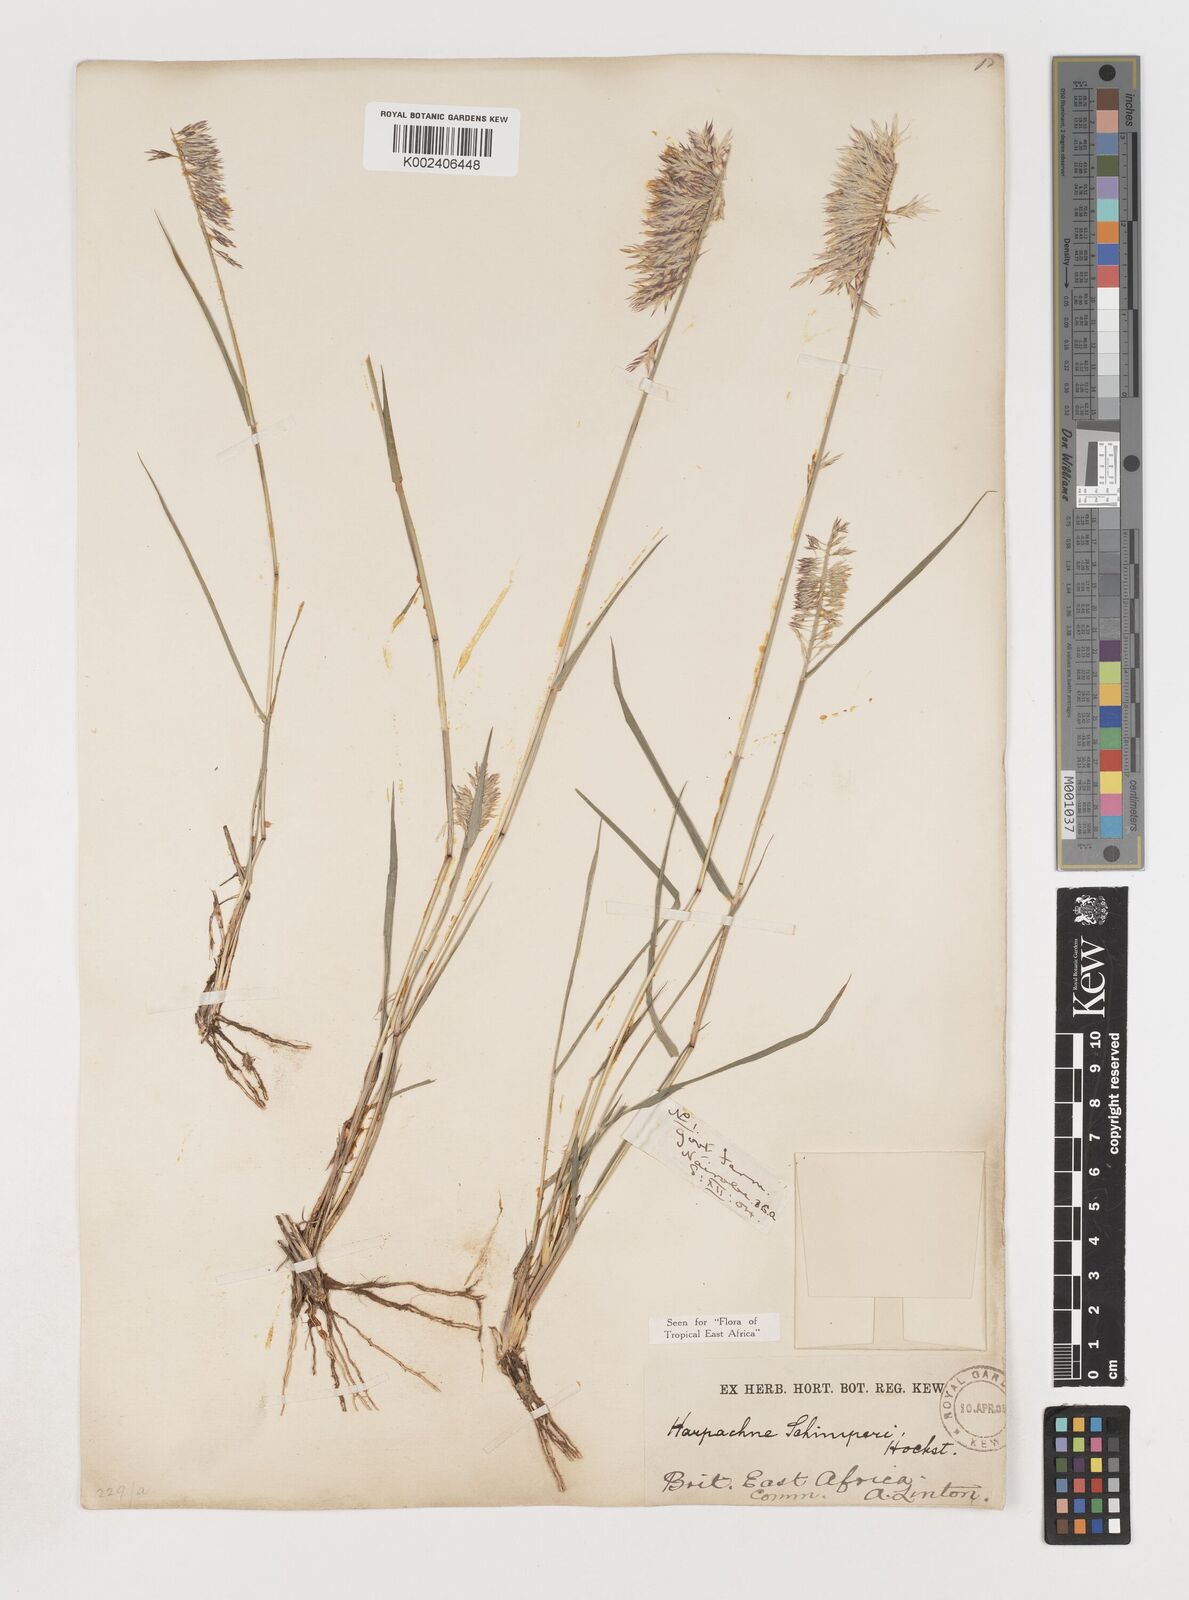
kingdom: Plantae
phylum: Tracheophyta
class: Liliopsida
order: Poales
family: Poaceae
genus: Harpachne
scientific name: Harpachne schimperi
